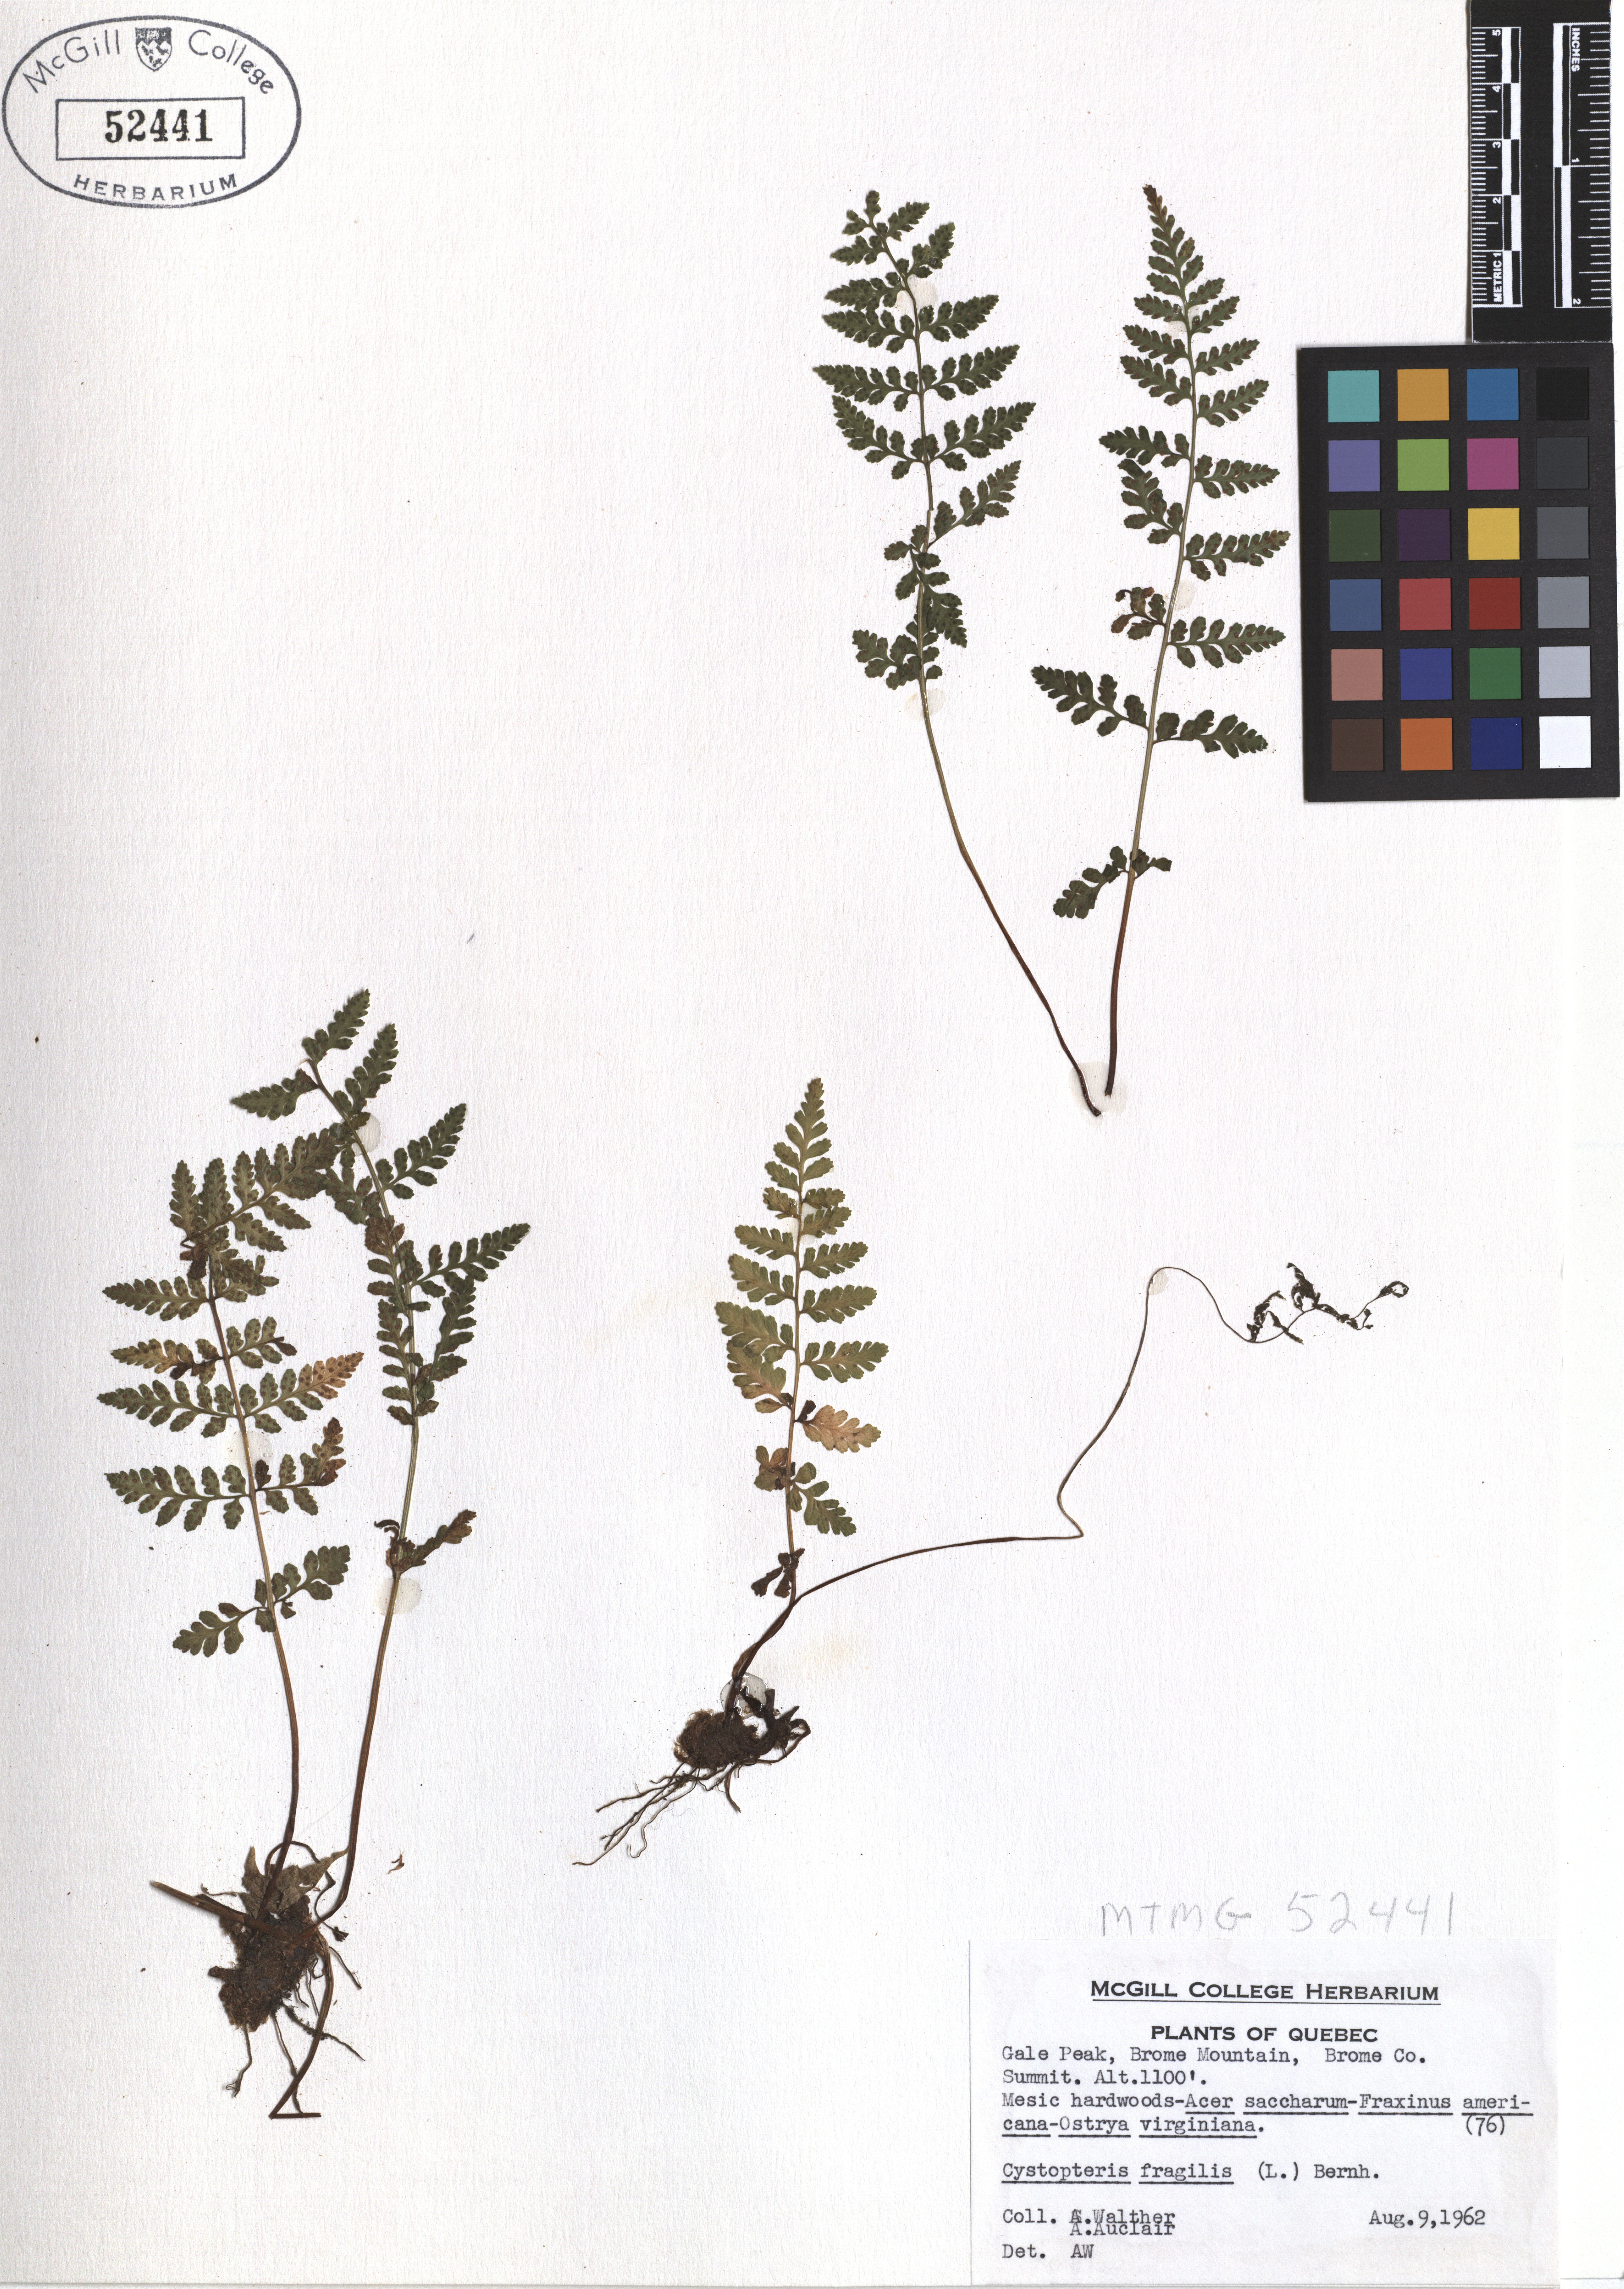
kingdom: Plantae
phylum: Tracheophyta
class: Polypodiopsida
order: Polypodiales
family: Cystopteridaceae
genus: Cystopteris
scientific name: Cystopteris fragilis
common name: Brittle bladder fern
